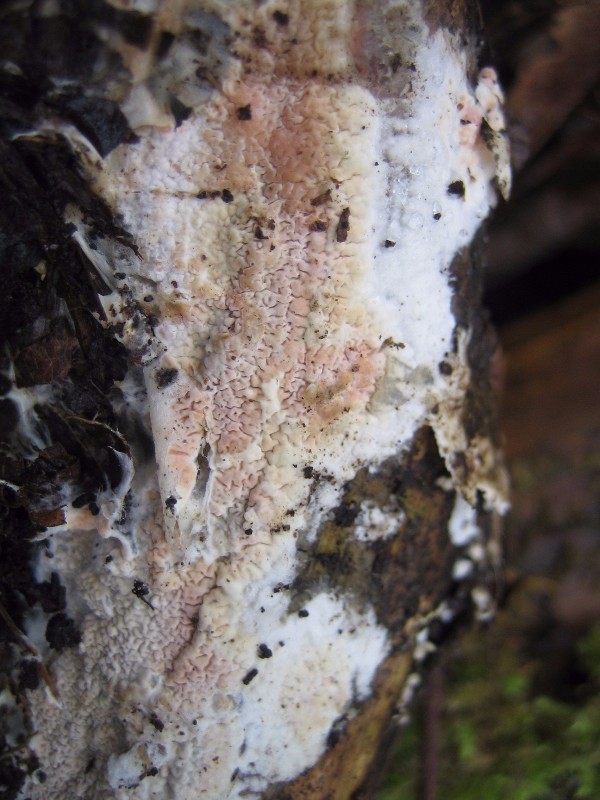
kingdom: Fungi
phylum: Basidiomycota
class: Agaricomycetes
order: Polyporales
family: Irpicaceae
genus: Crystallicutis
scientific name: Crystallicutis serpens
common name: gråviolet barkhinde
